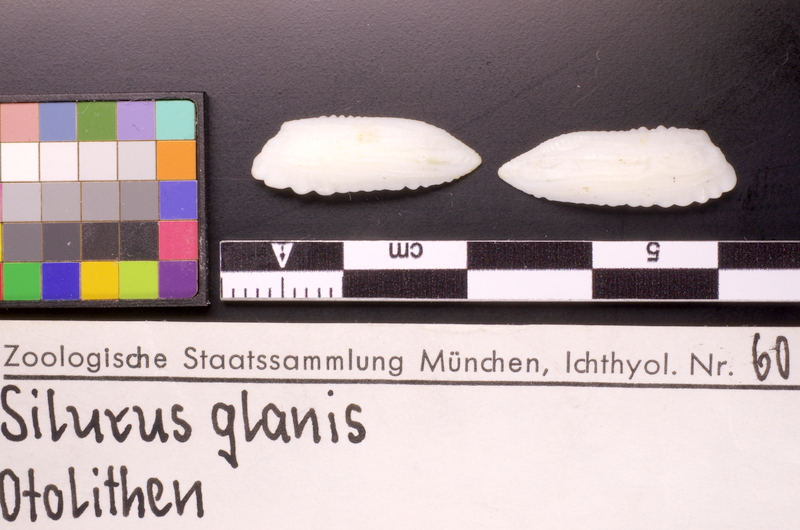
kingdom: Animalia
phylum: Chordata
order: Cypriniformes
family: Cyprinidae
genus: Leuciscus
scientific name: Leuciscus idus
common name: Ide
